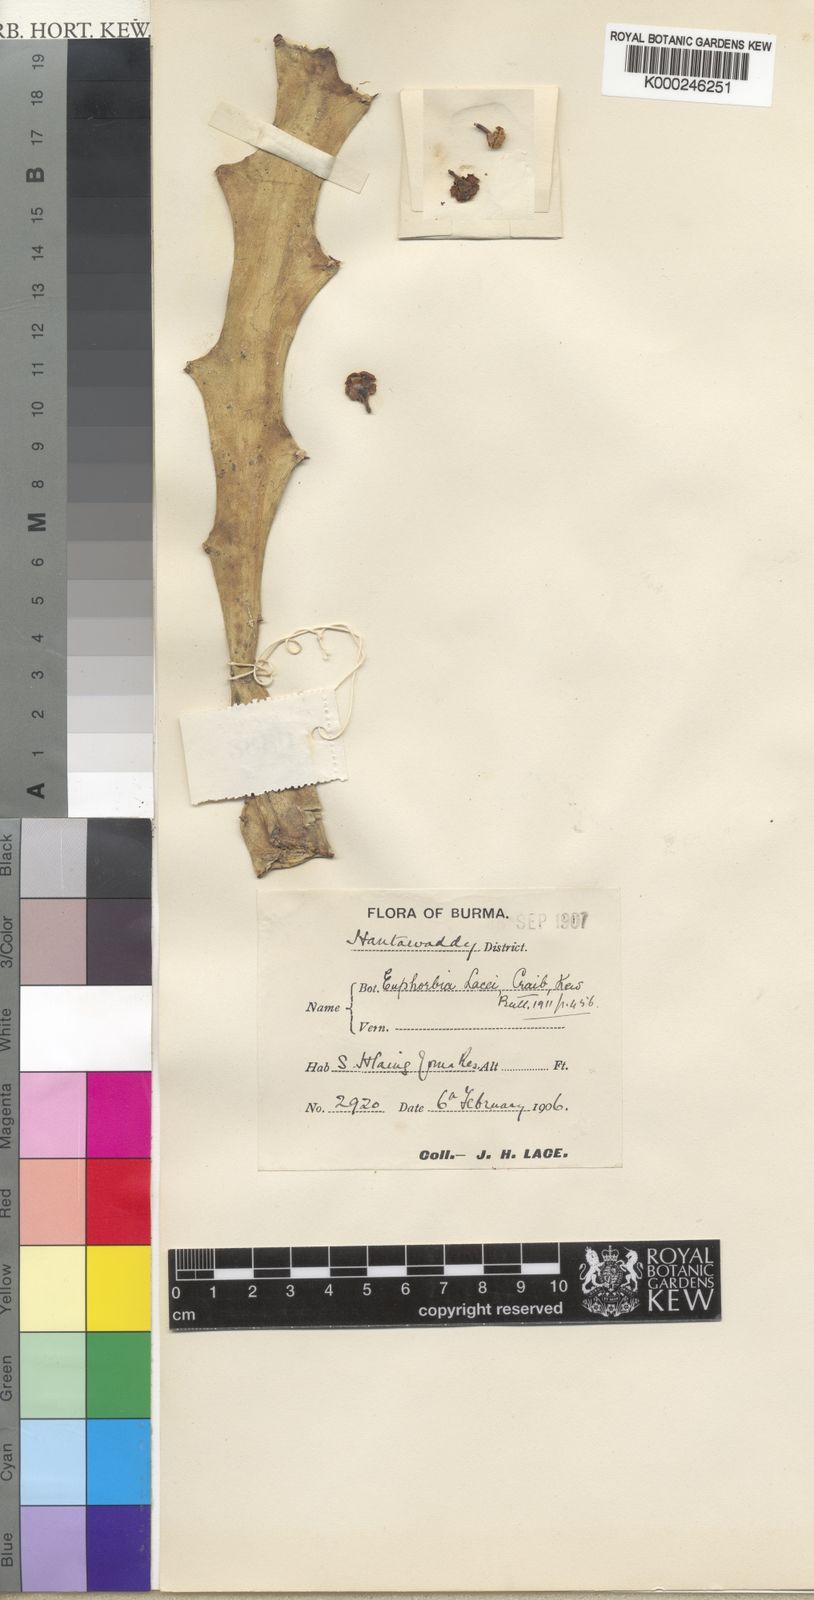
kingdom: Plantae
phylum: Tracheophyta
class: Magnoliopsida
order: Malpighiales
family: Euphorbiaceae
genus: Euphorbia
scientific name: Euphorbia lacei
